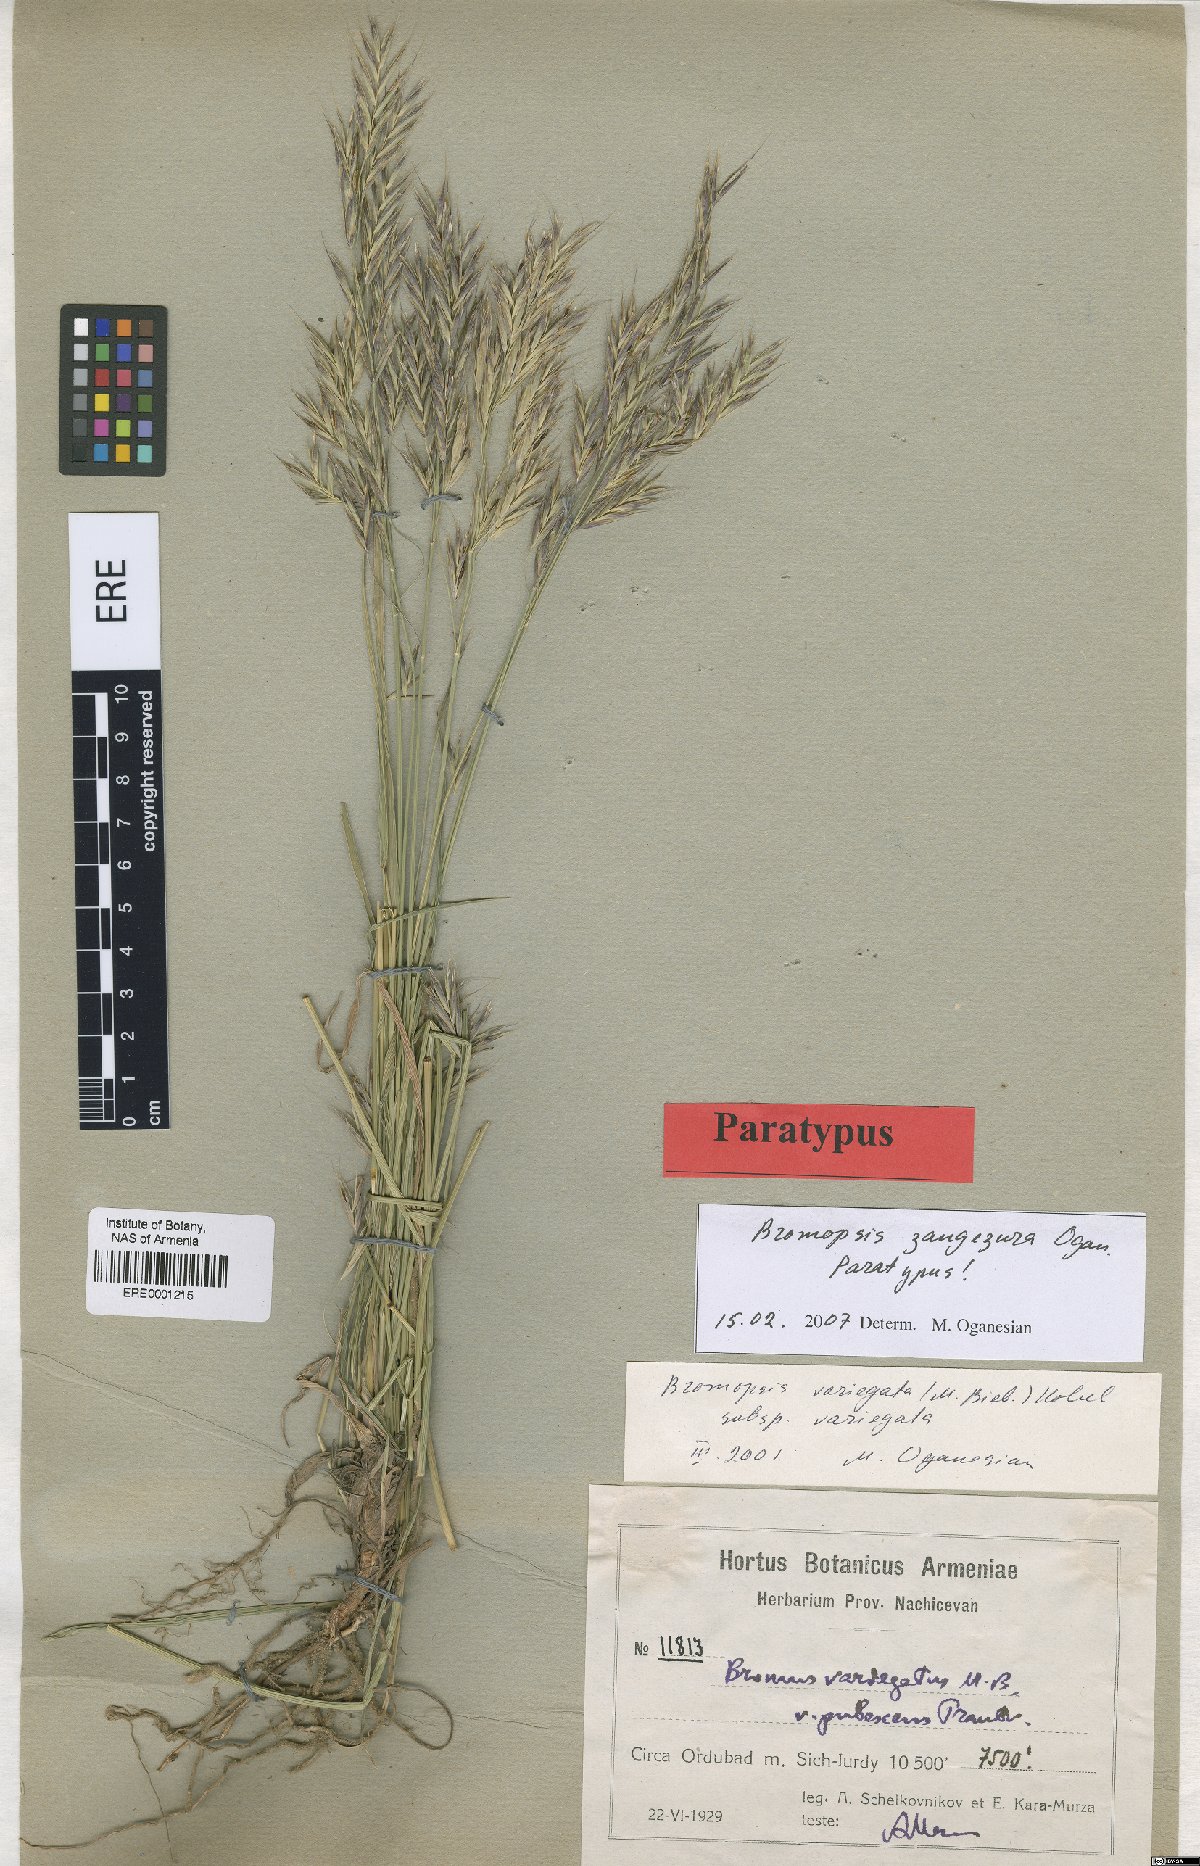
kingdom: Plantae
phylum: Tracheophyta
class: Liliopsida
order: Poales
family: Poaceae
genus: Bromus
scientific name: Bromus erectus
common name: Erect brome
